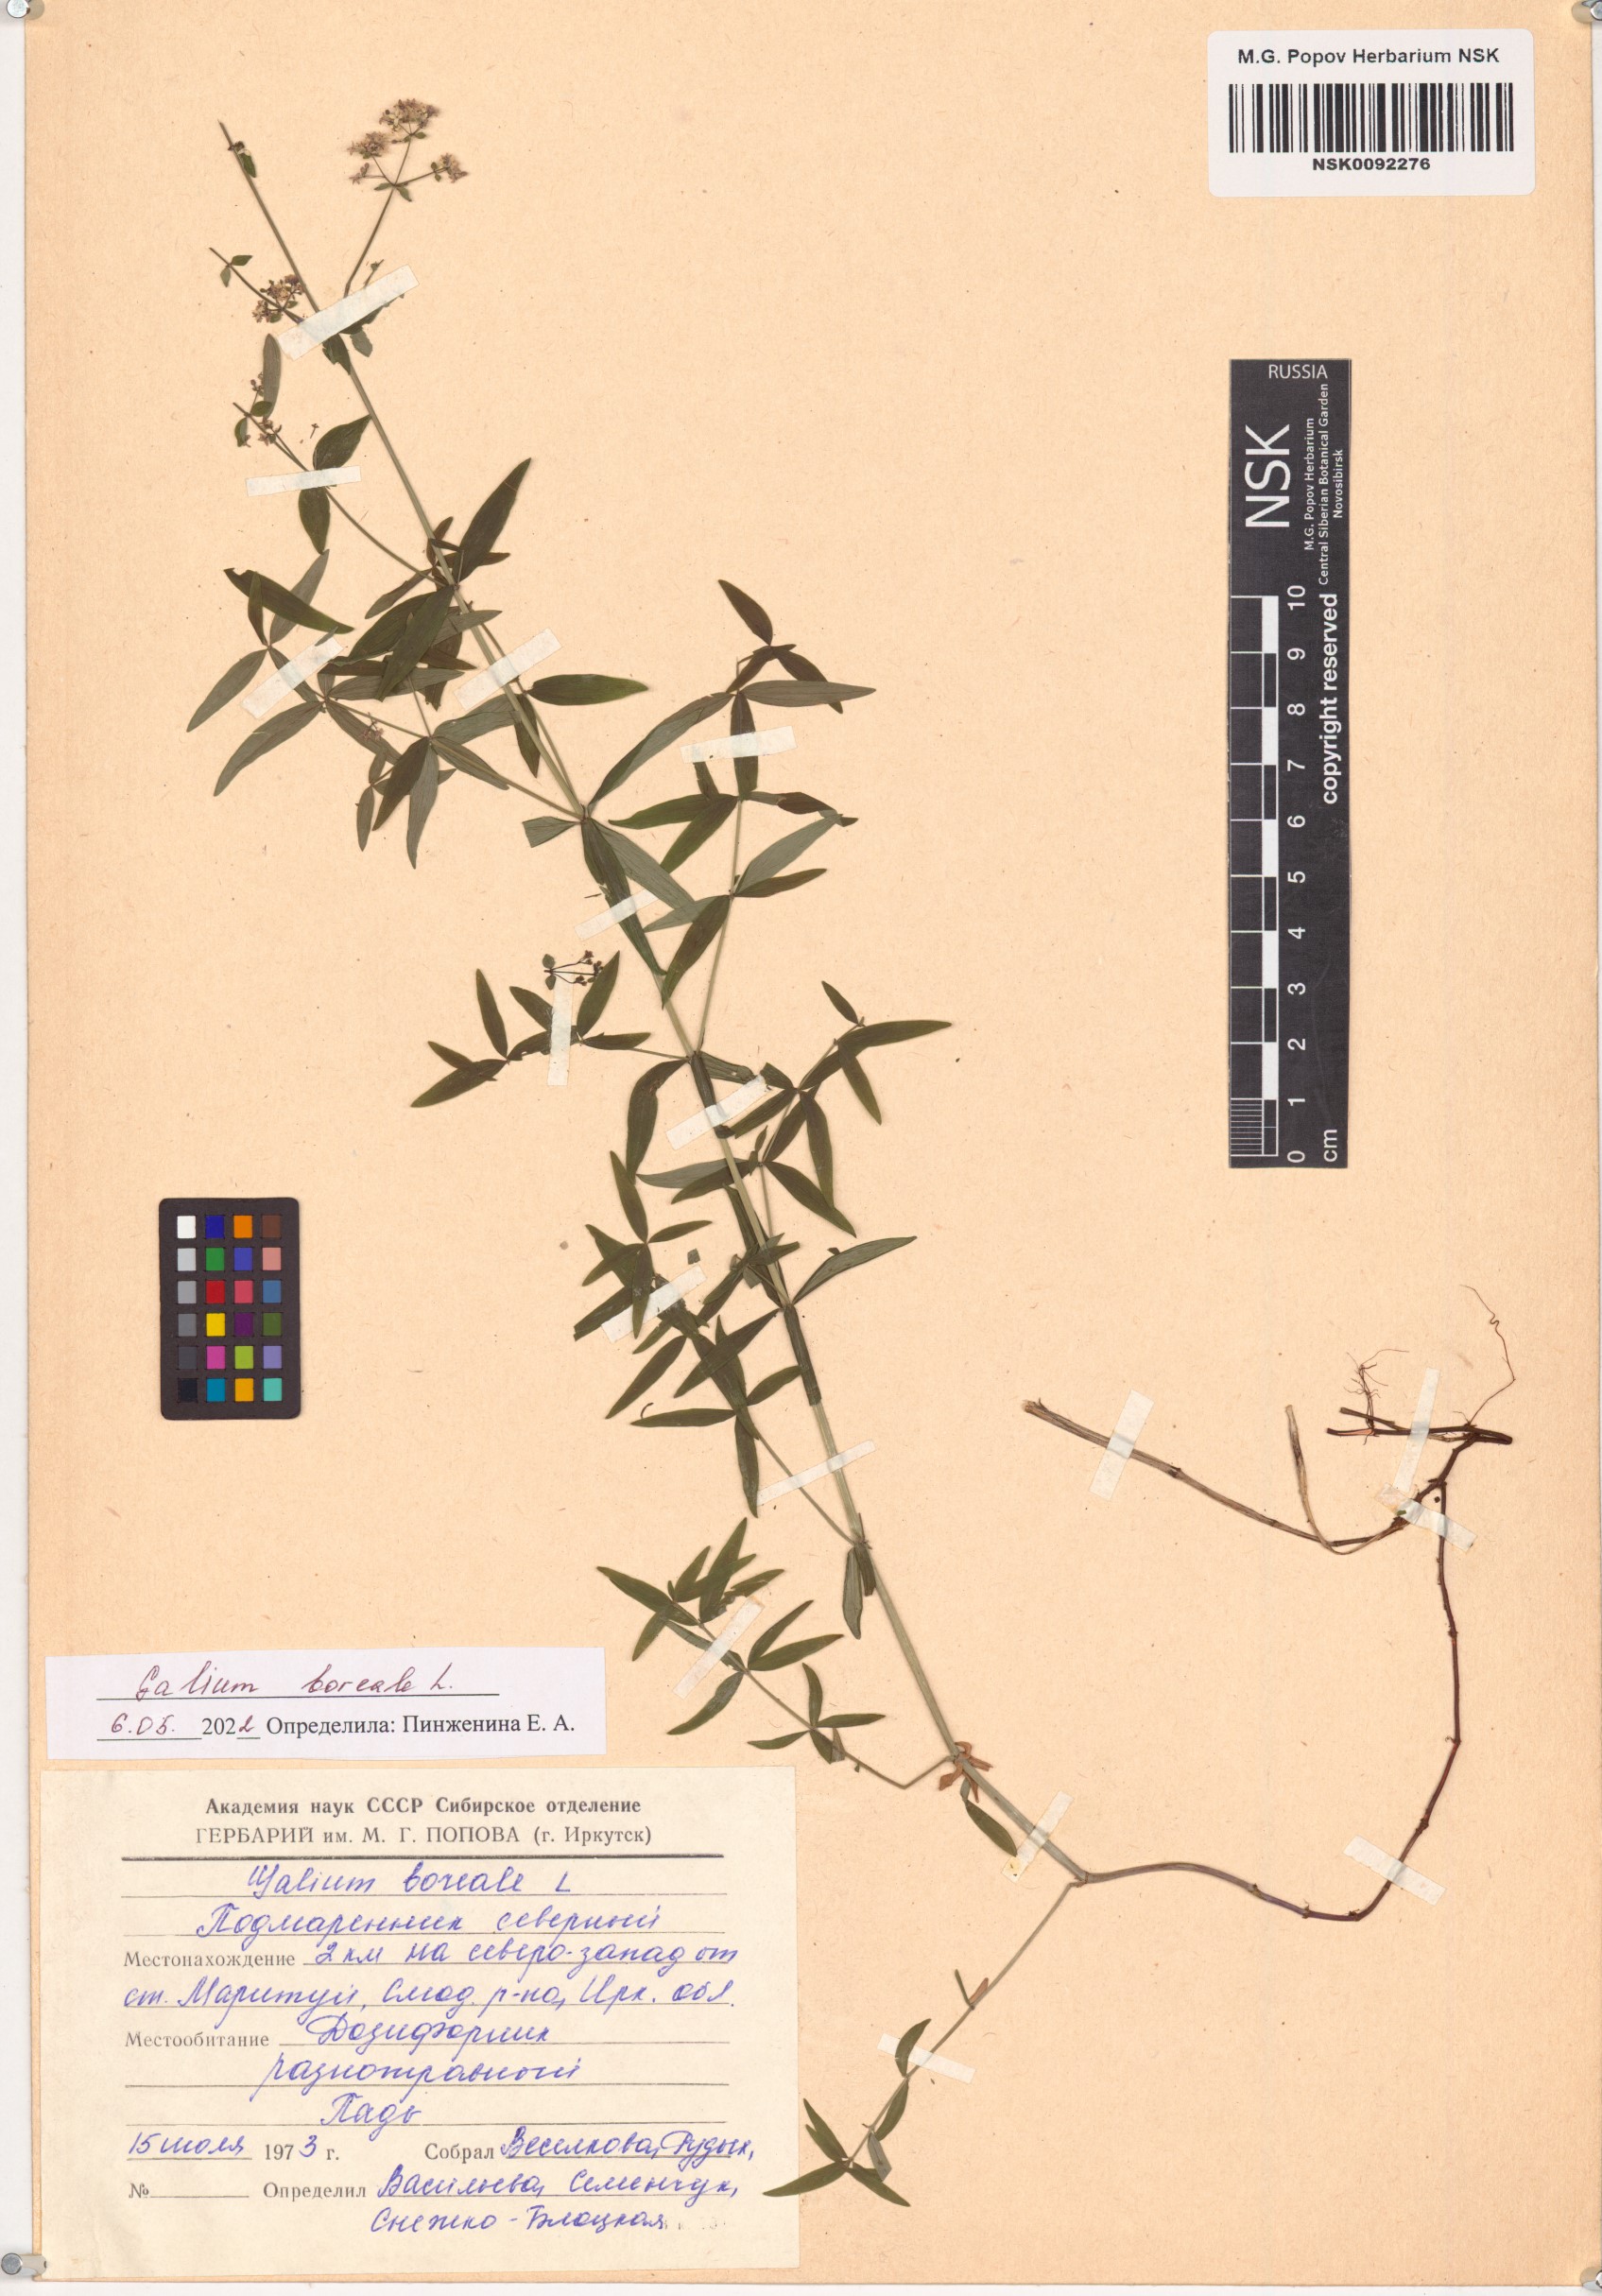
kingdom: Plantae
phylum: Tracheophyta
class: Magnoliopsida
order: Gentianales
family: Rubiaceae
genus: Galium
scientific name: Galium boreale
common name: Northern bedstraw
